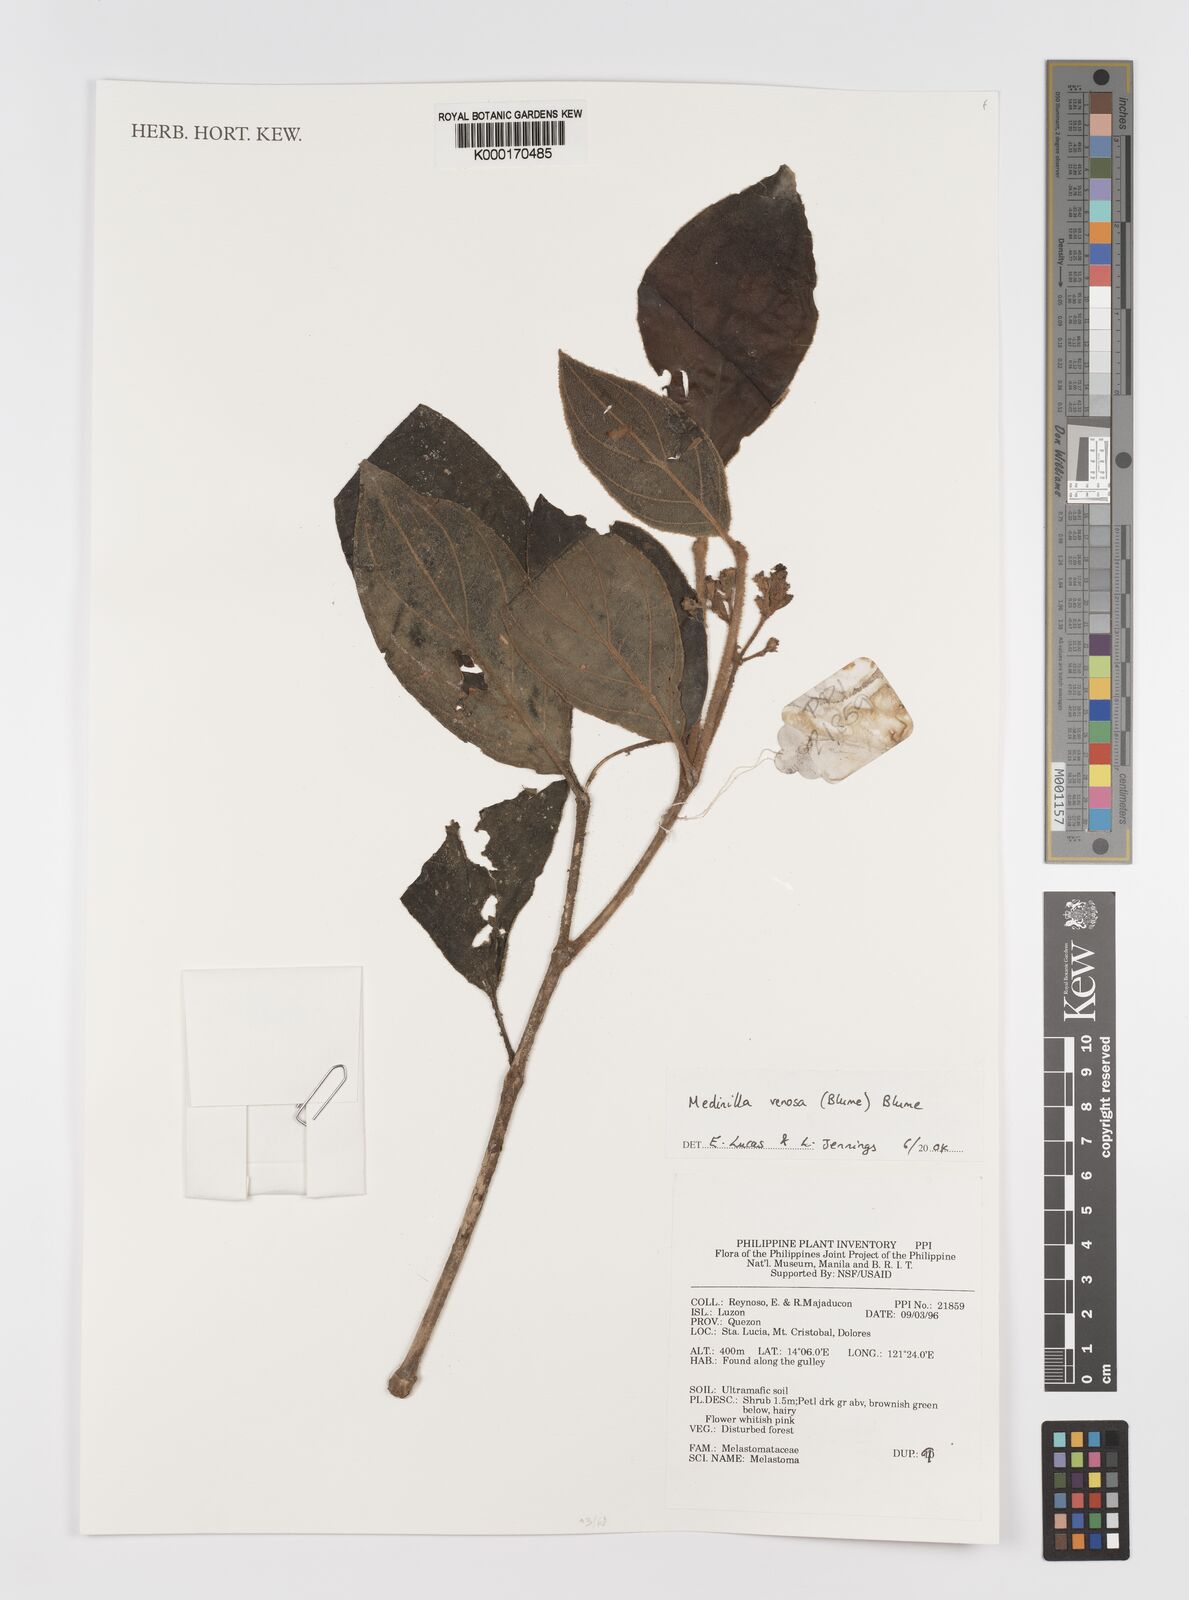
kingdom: Plantae
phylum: Tracheophyta
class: Magnoliopsida
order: Myrtales
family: Melastomataceae
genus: Medinilla
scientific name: Medinilla venosa
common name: Holdtight
